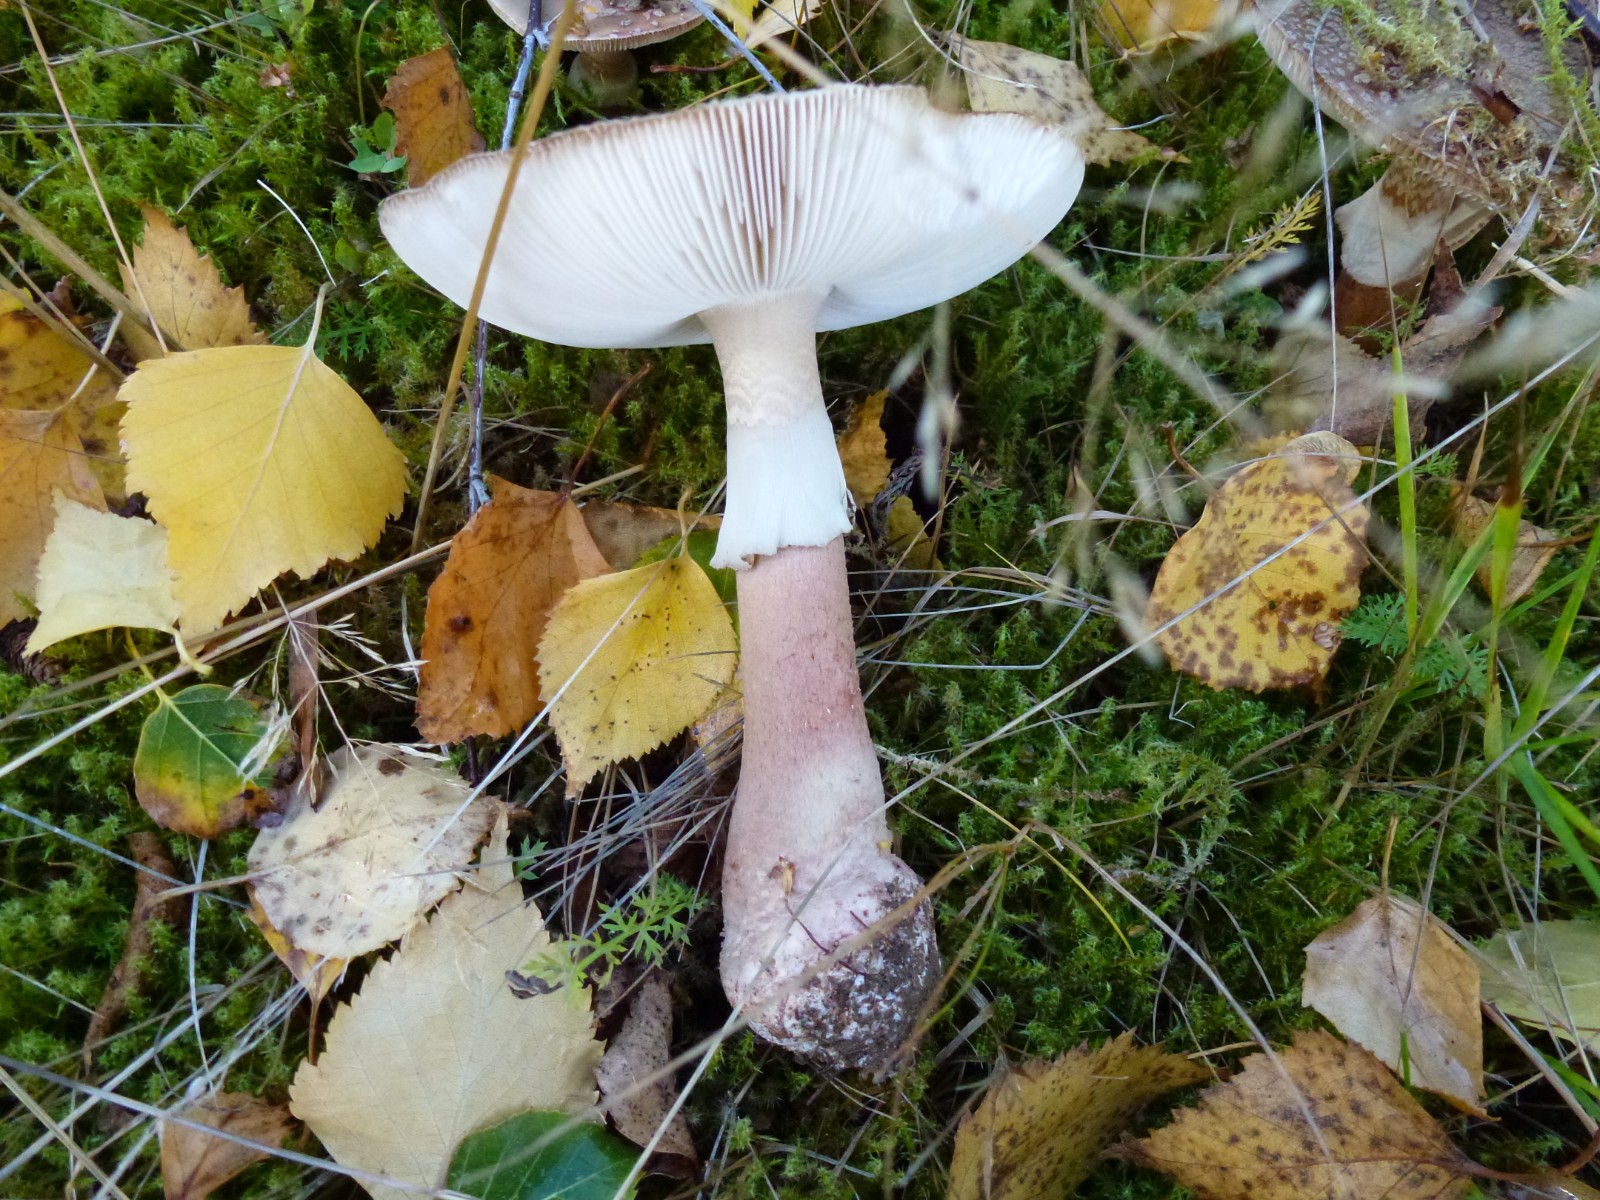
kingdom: Fungi
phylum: Basidiomycota
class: Agaricomycetes
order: Agaricales
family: Amanitaceae
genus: Amanita
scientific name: Amanita rubescens
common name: rødmende fluesvamp
